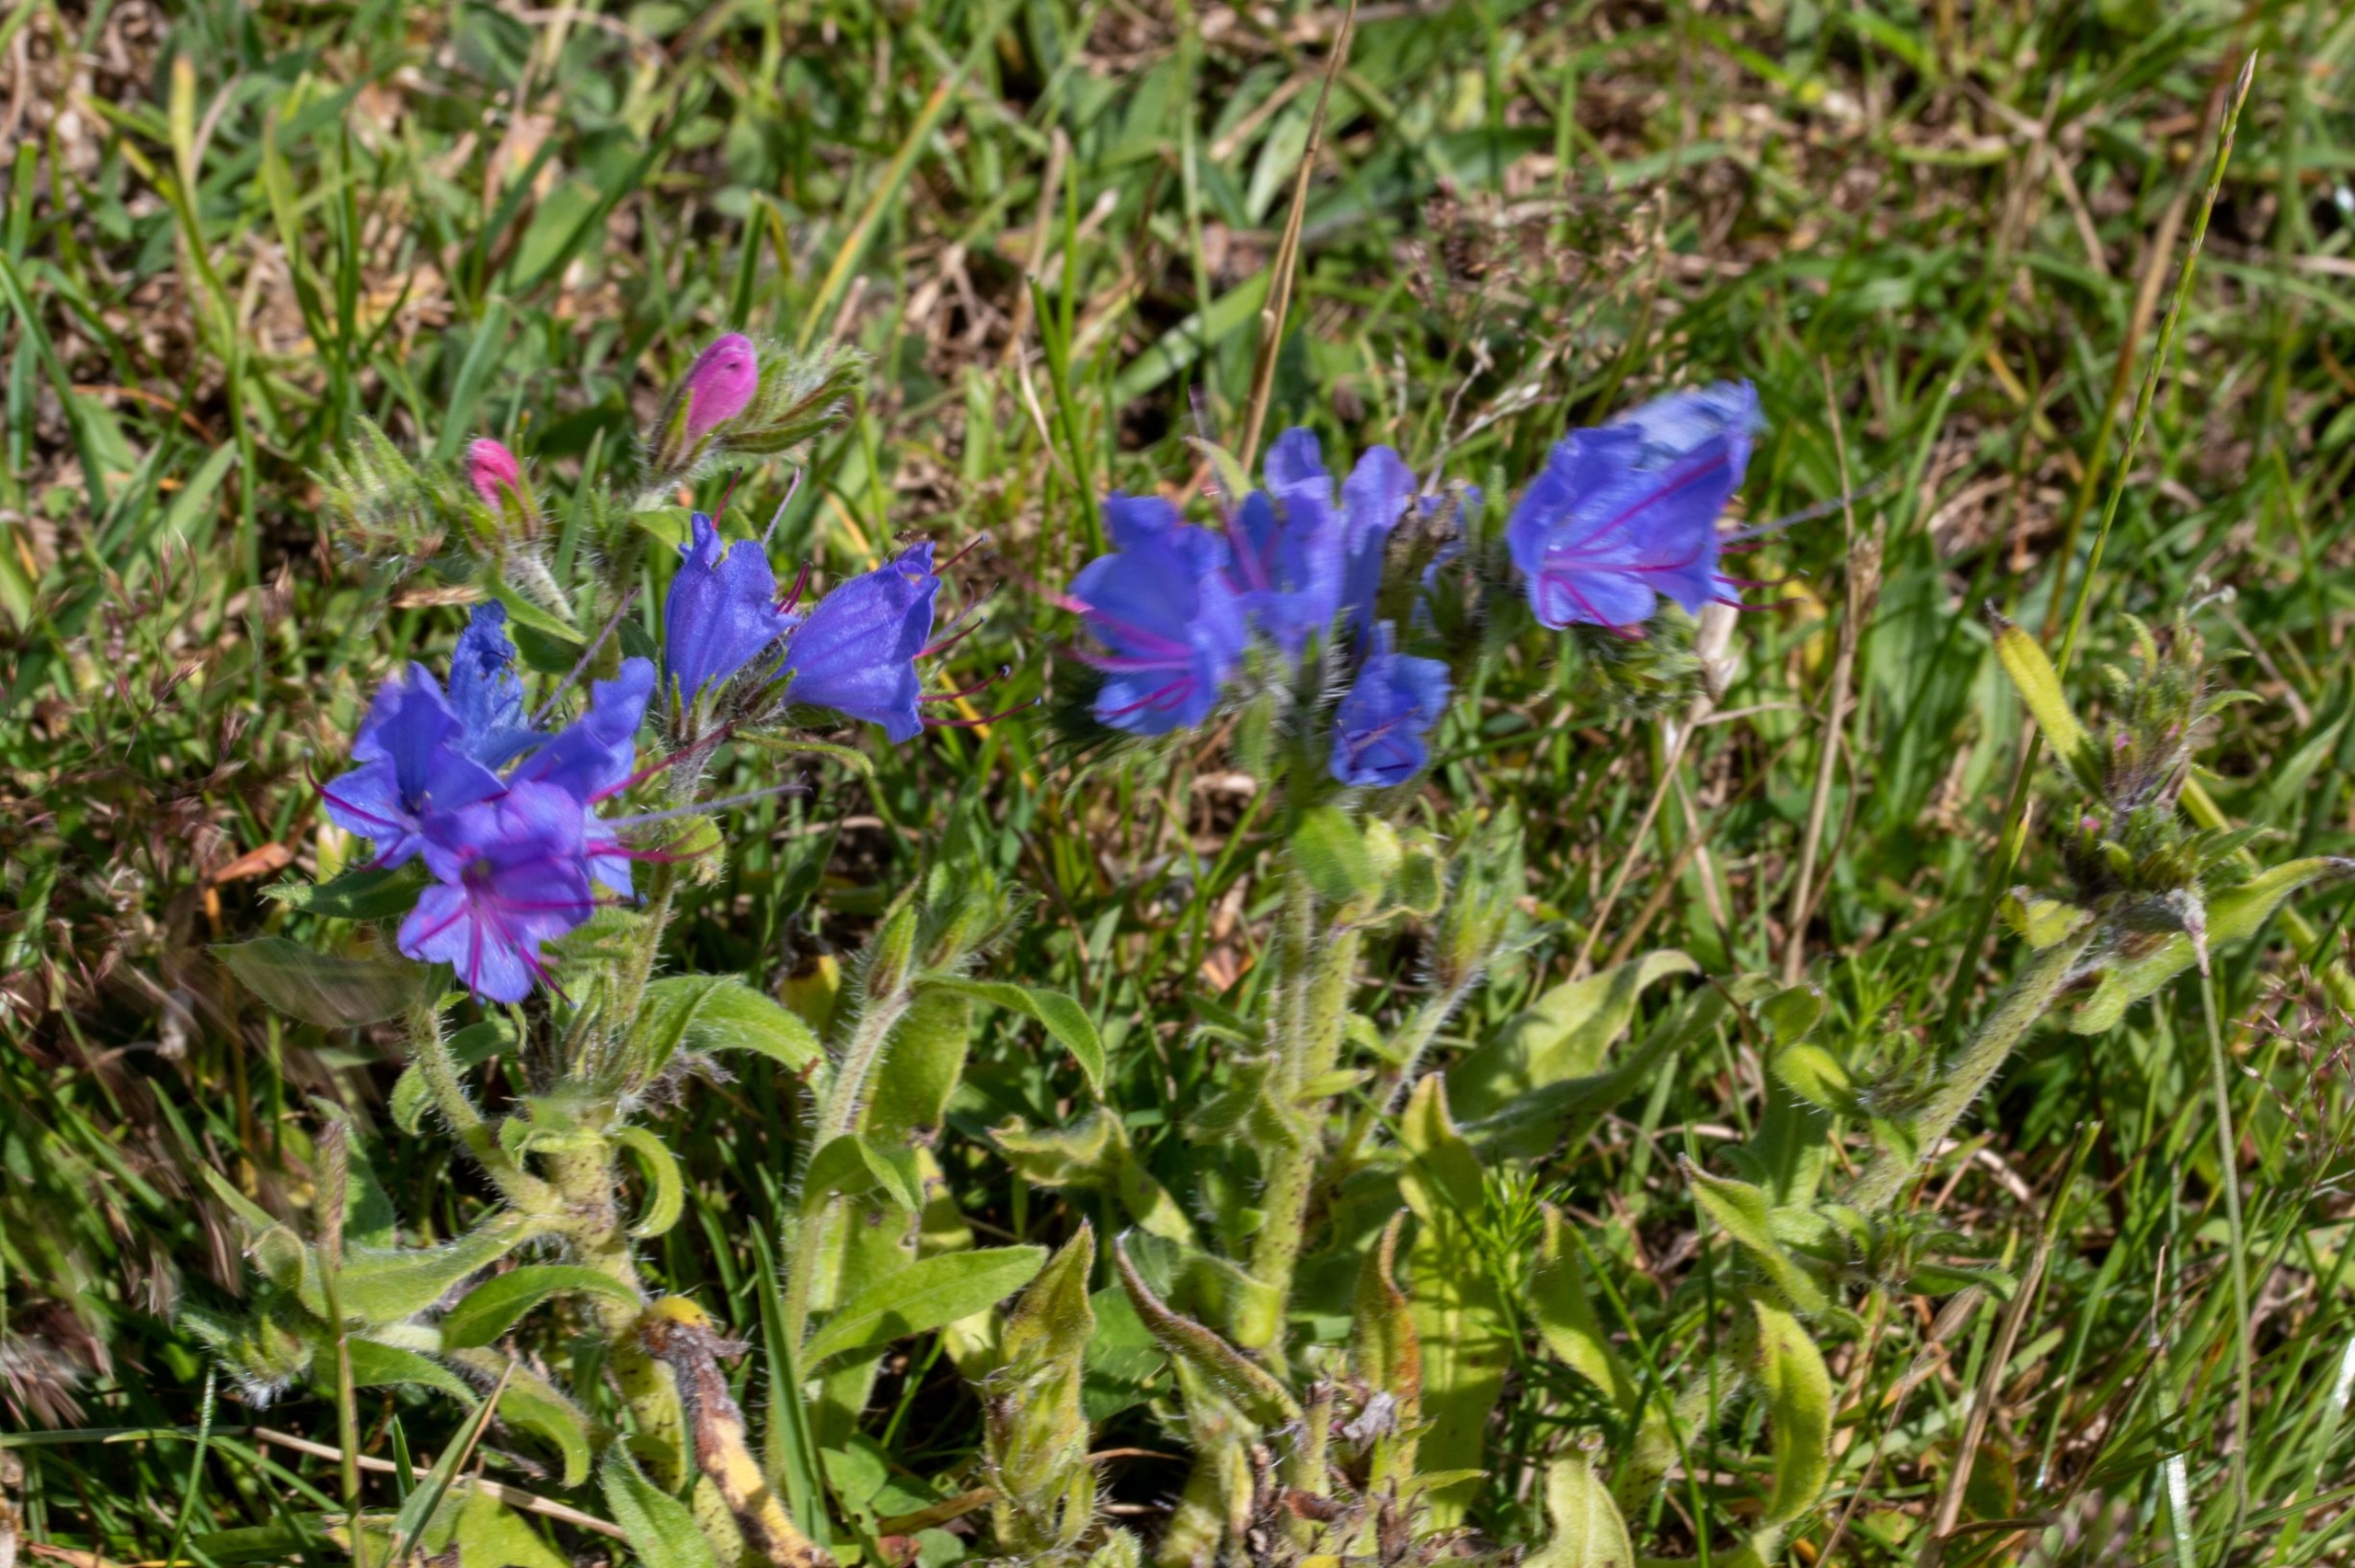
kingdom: Plantae
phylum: Tracheophyta
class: Polypodiopsida
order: Ophioglossales
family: Ophioglossaceae
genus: Ophioglossum
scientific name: Ophioglossum vulgatum
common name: Slangetunge
